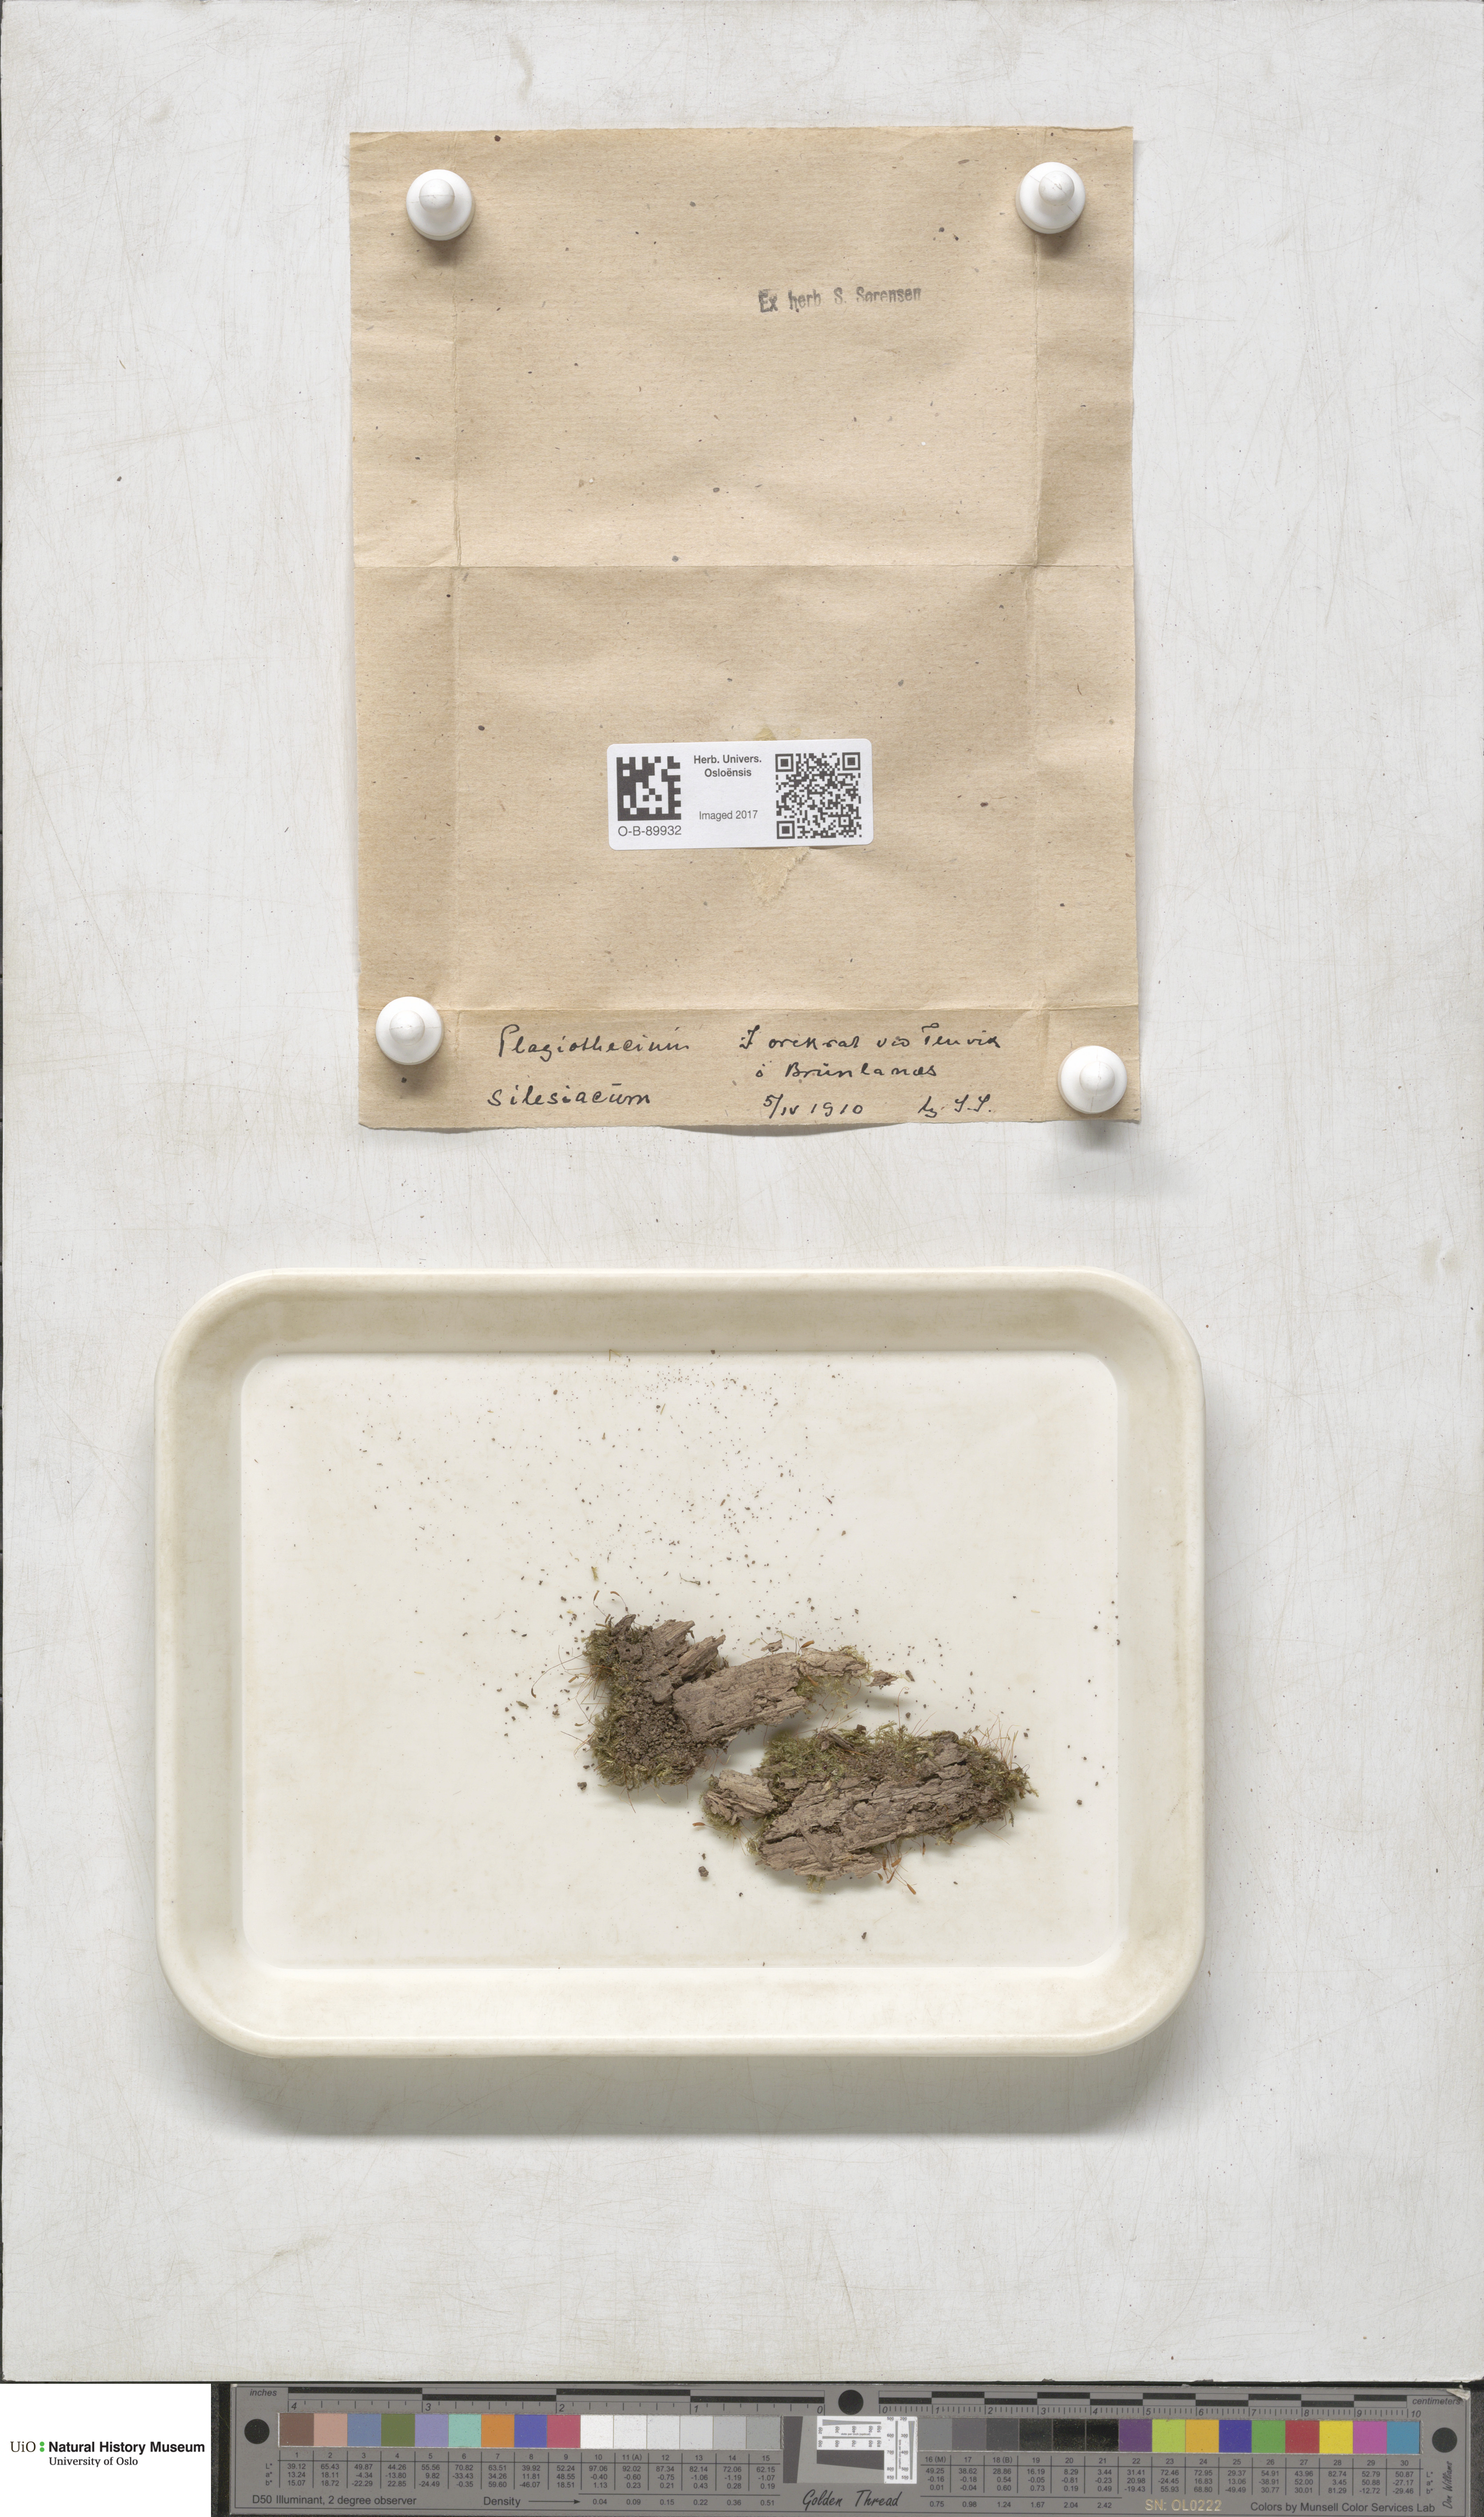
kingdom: Plantae
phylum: Bryophyta
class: Bryopsida
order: Hypnales
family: Plagiotheciaceae
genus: Herzogiella
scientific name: Herzogiella seligeri
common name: Silesian feather-moss
